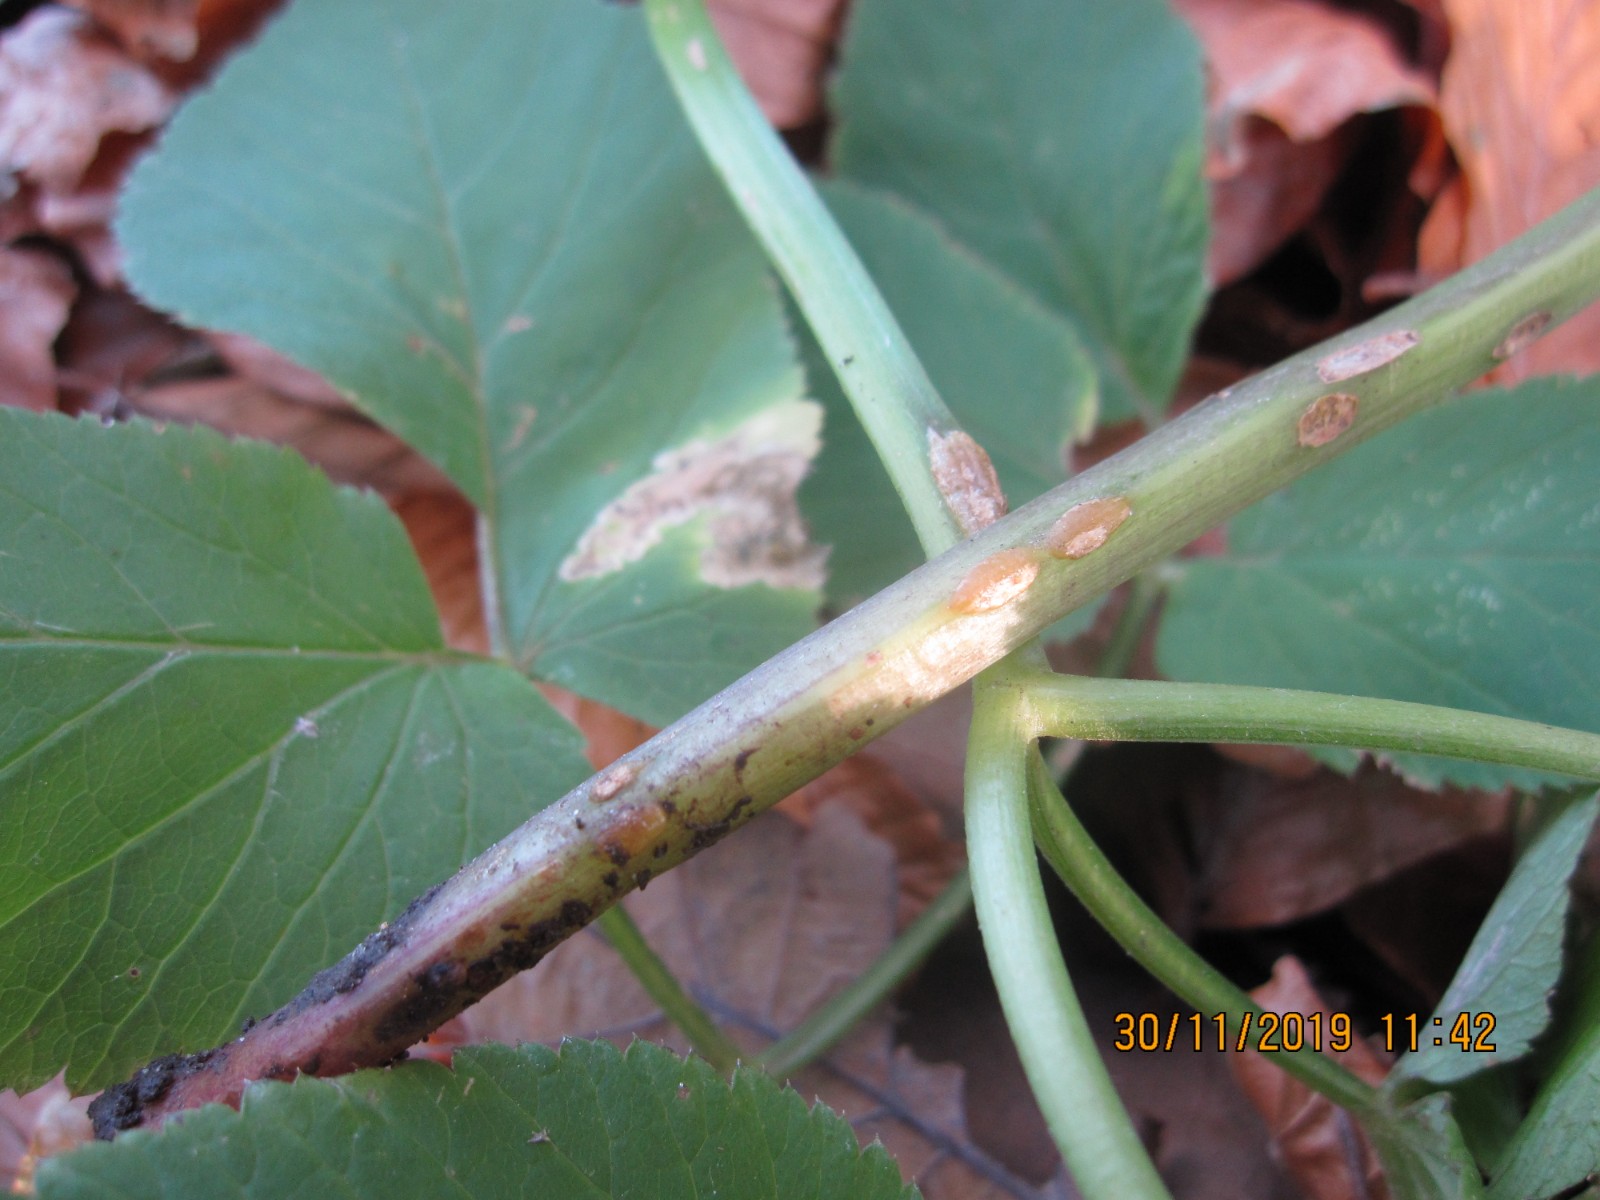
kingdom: Fungi
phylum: Ascomycota
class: Taphrinomycetes
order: Taphrinales
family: Taphrinaceae
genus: Protomyces
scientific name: Protomyces macrosporus
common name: skvalderkål-vablesæk
